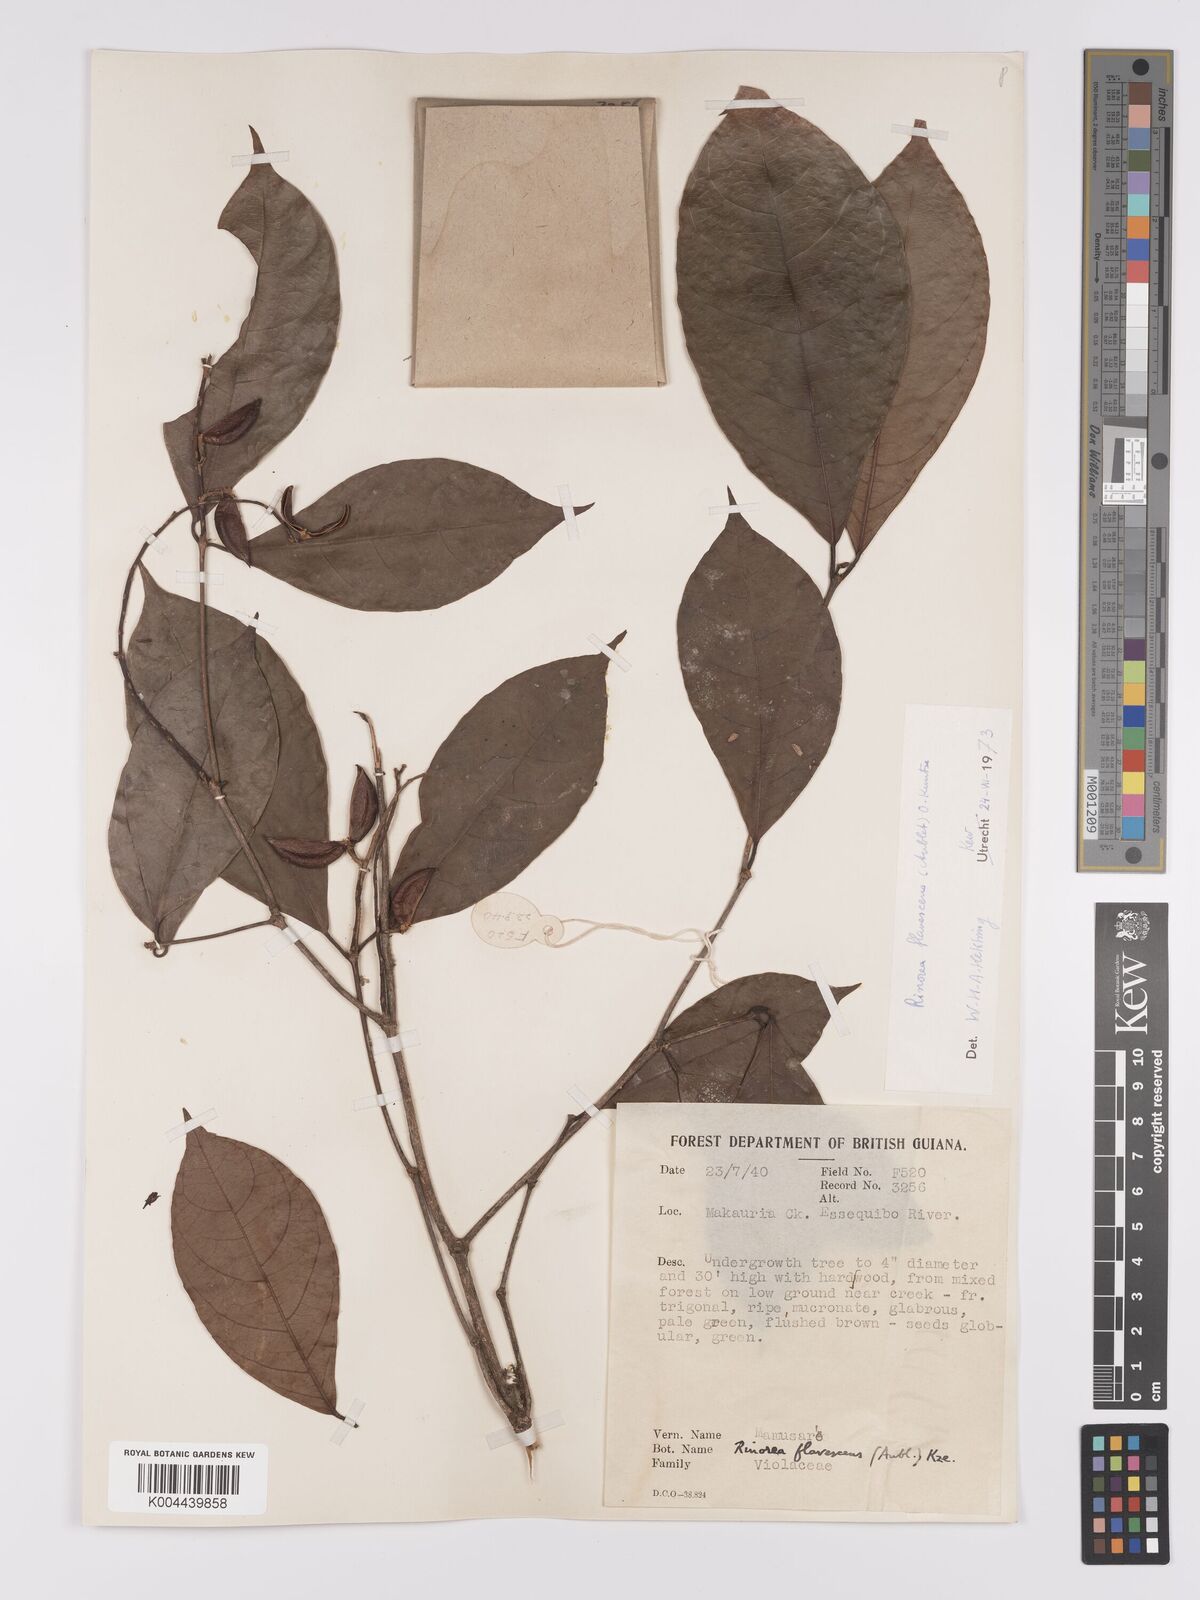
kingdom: Plantae
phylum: Tracheophyta
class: Magnoliopsida
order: Malpighiales
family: Violaceae
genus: Rinorea
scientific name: Rinorea flavescens
